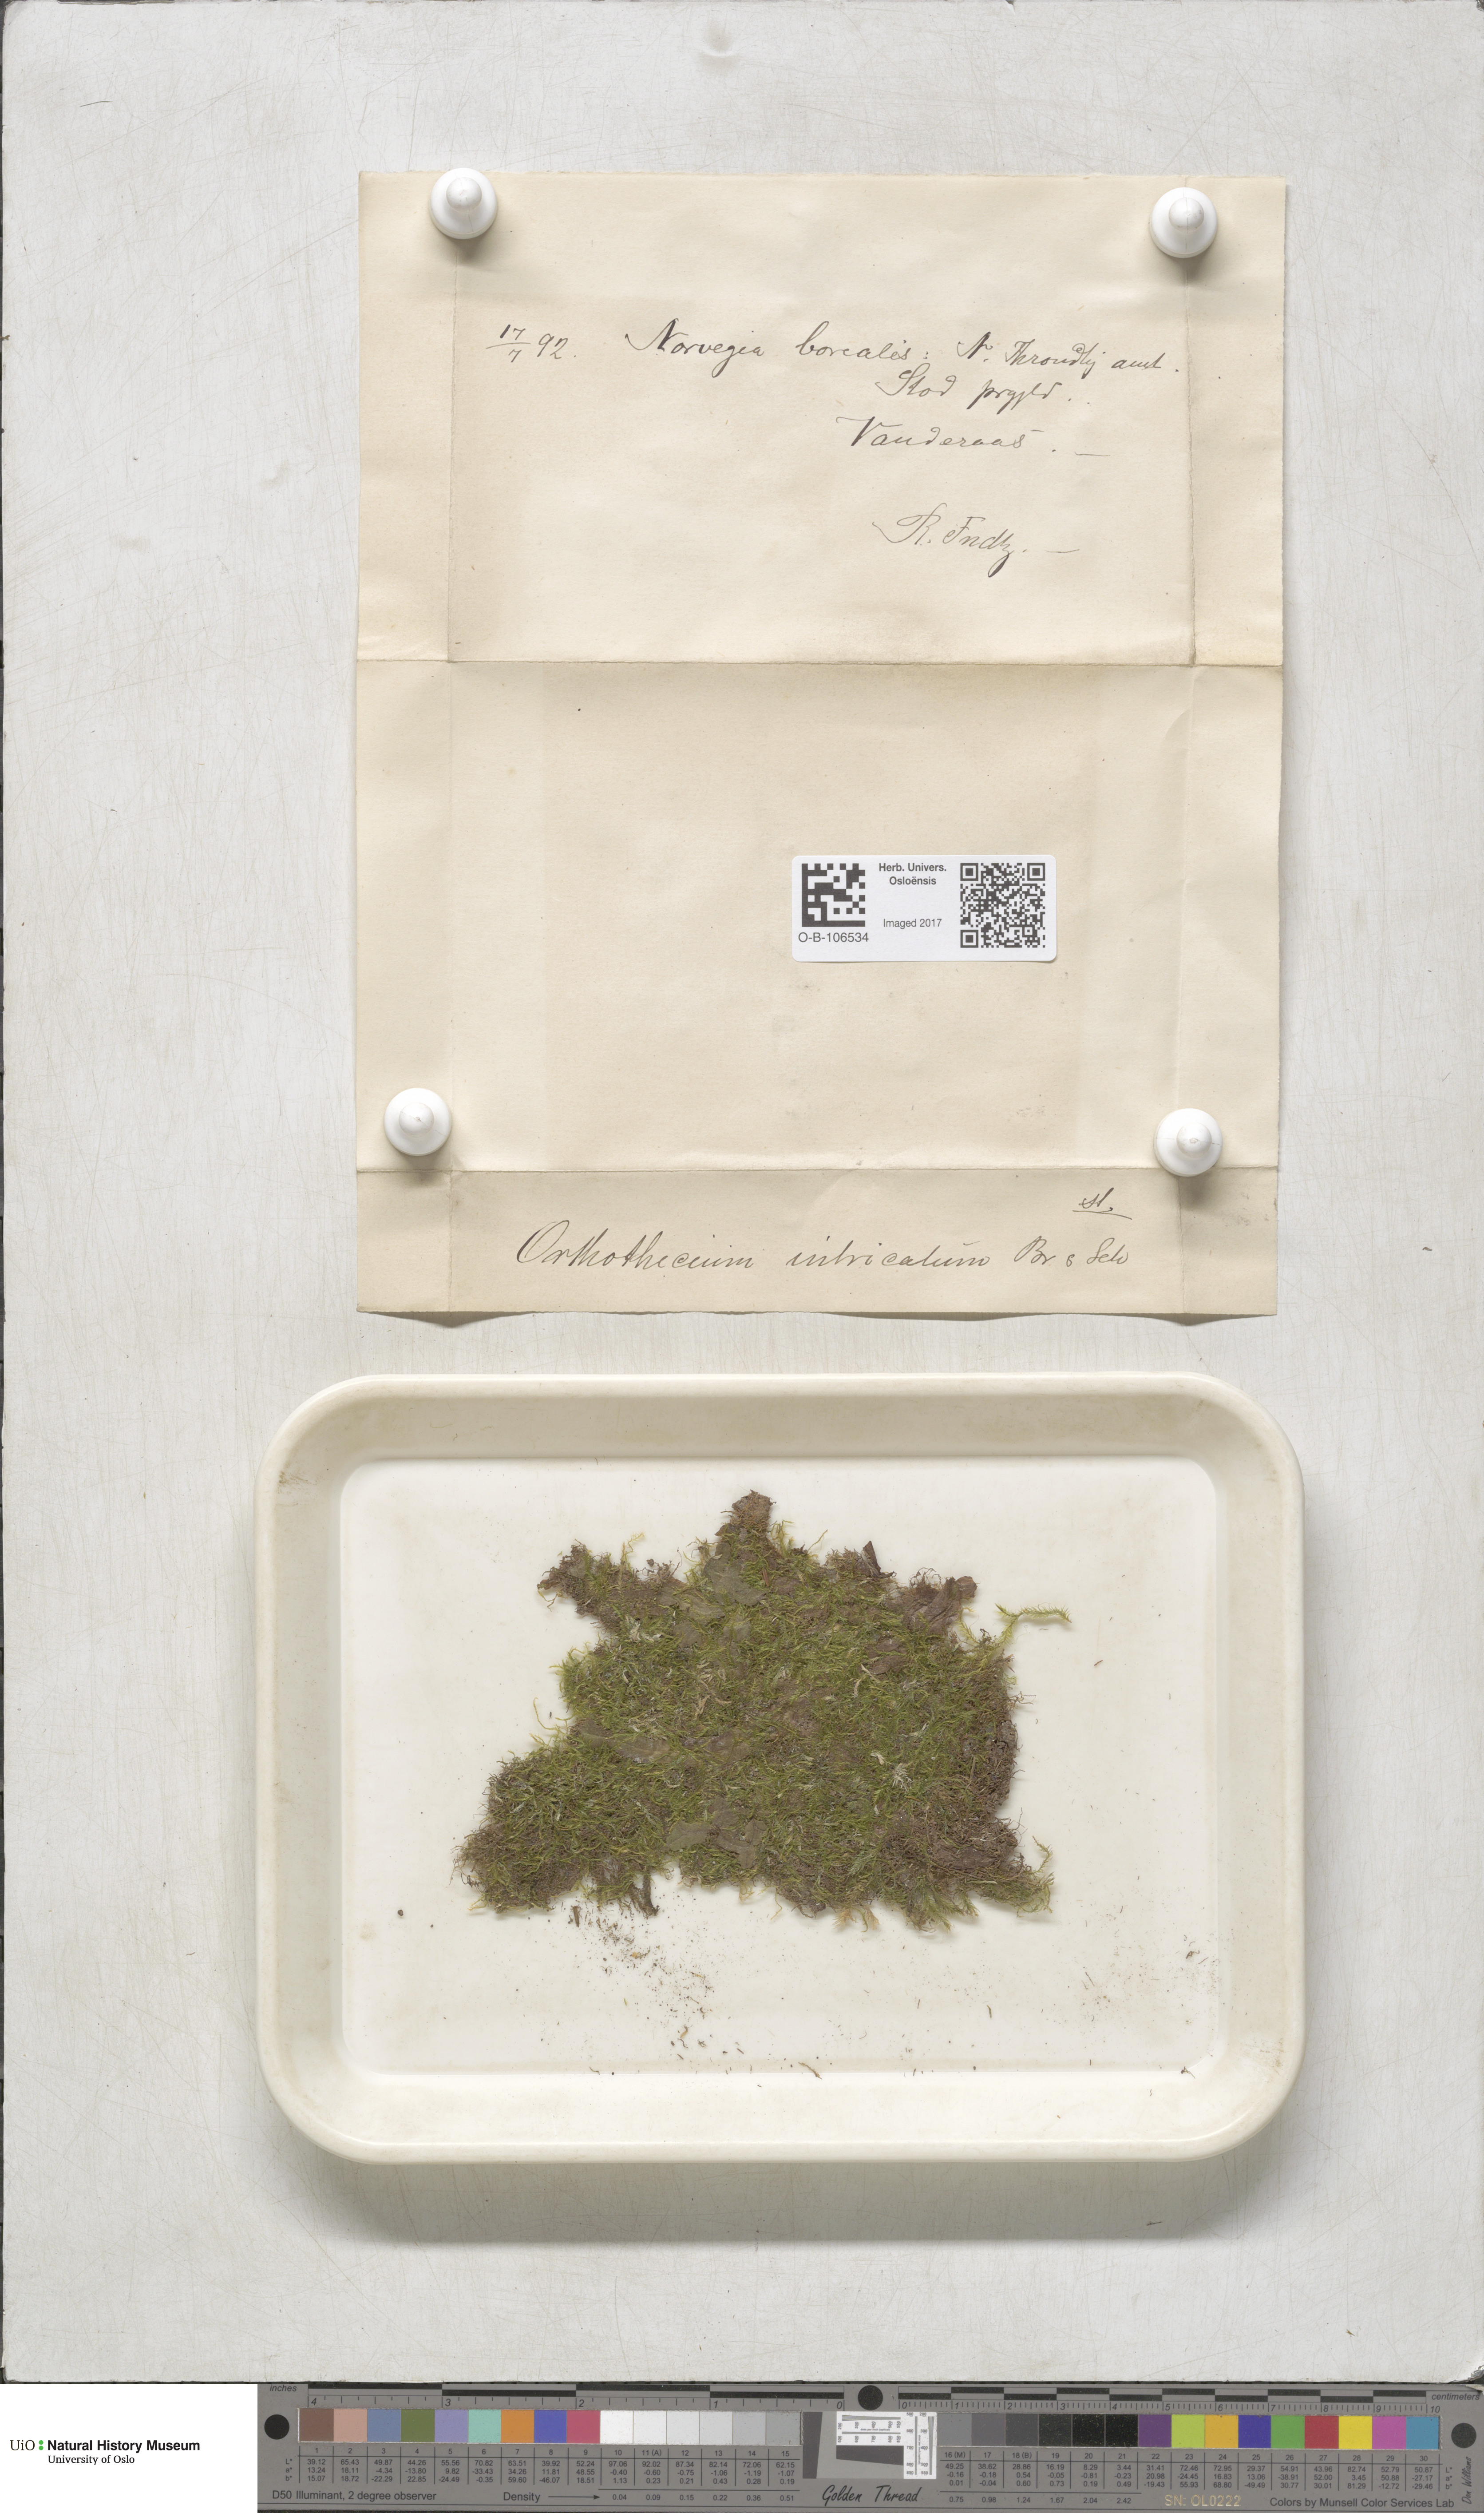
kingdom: Plantae
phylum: Bryophyta
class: Bryopsida
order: Hypnales
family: Plagiotheciaceae
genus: Orthothecium
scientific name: Orthothecium intricatum
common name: Fine-leaved erect-capsule moss
